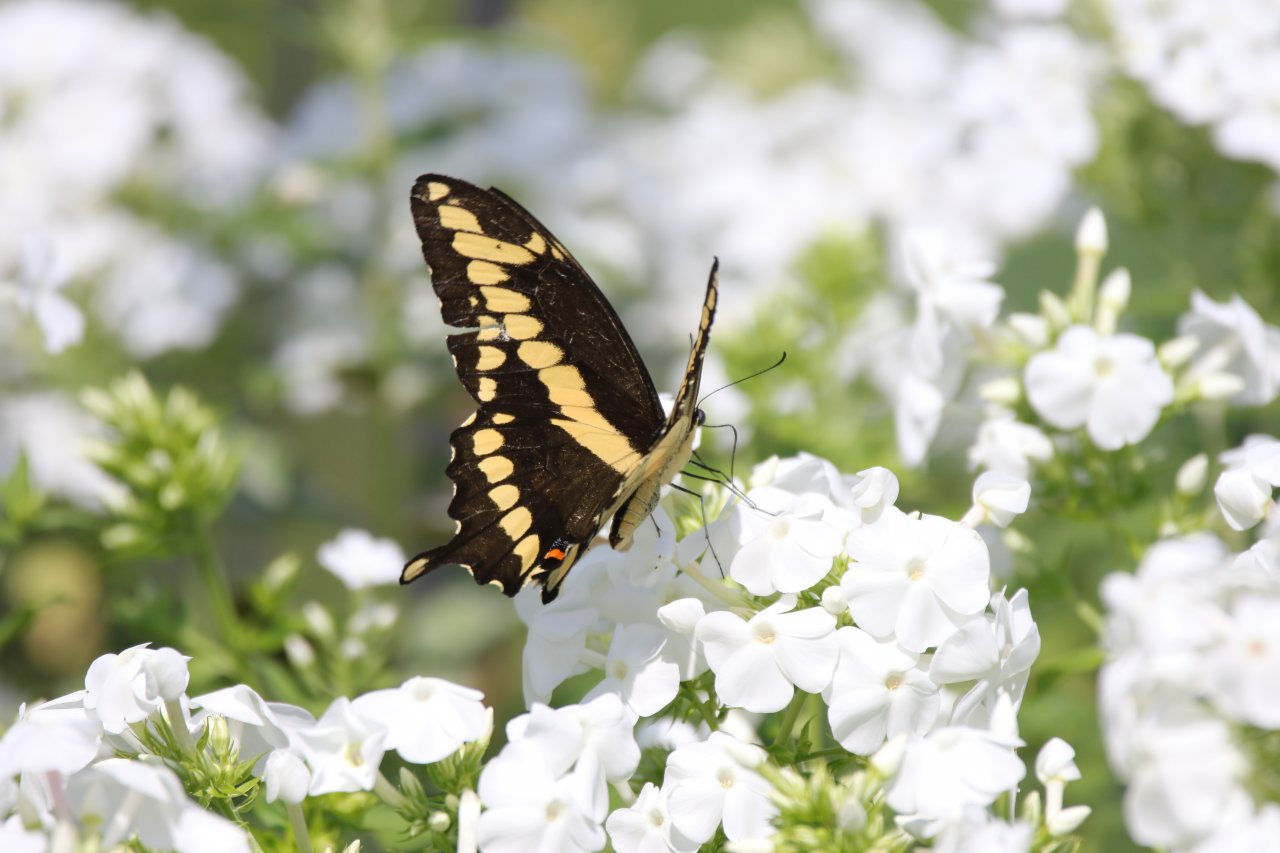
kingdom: Animalia
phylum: Arthropoda
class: Insecta
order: Lepidoptera
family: Papilionidae
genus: Papilio
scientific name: Papilio cresphontes
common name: Eastern Giant Swallowtail
